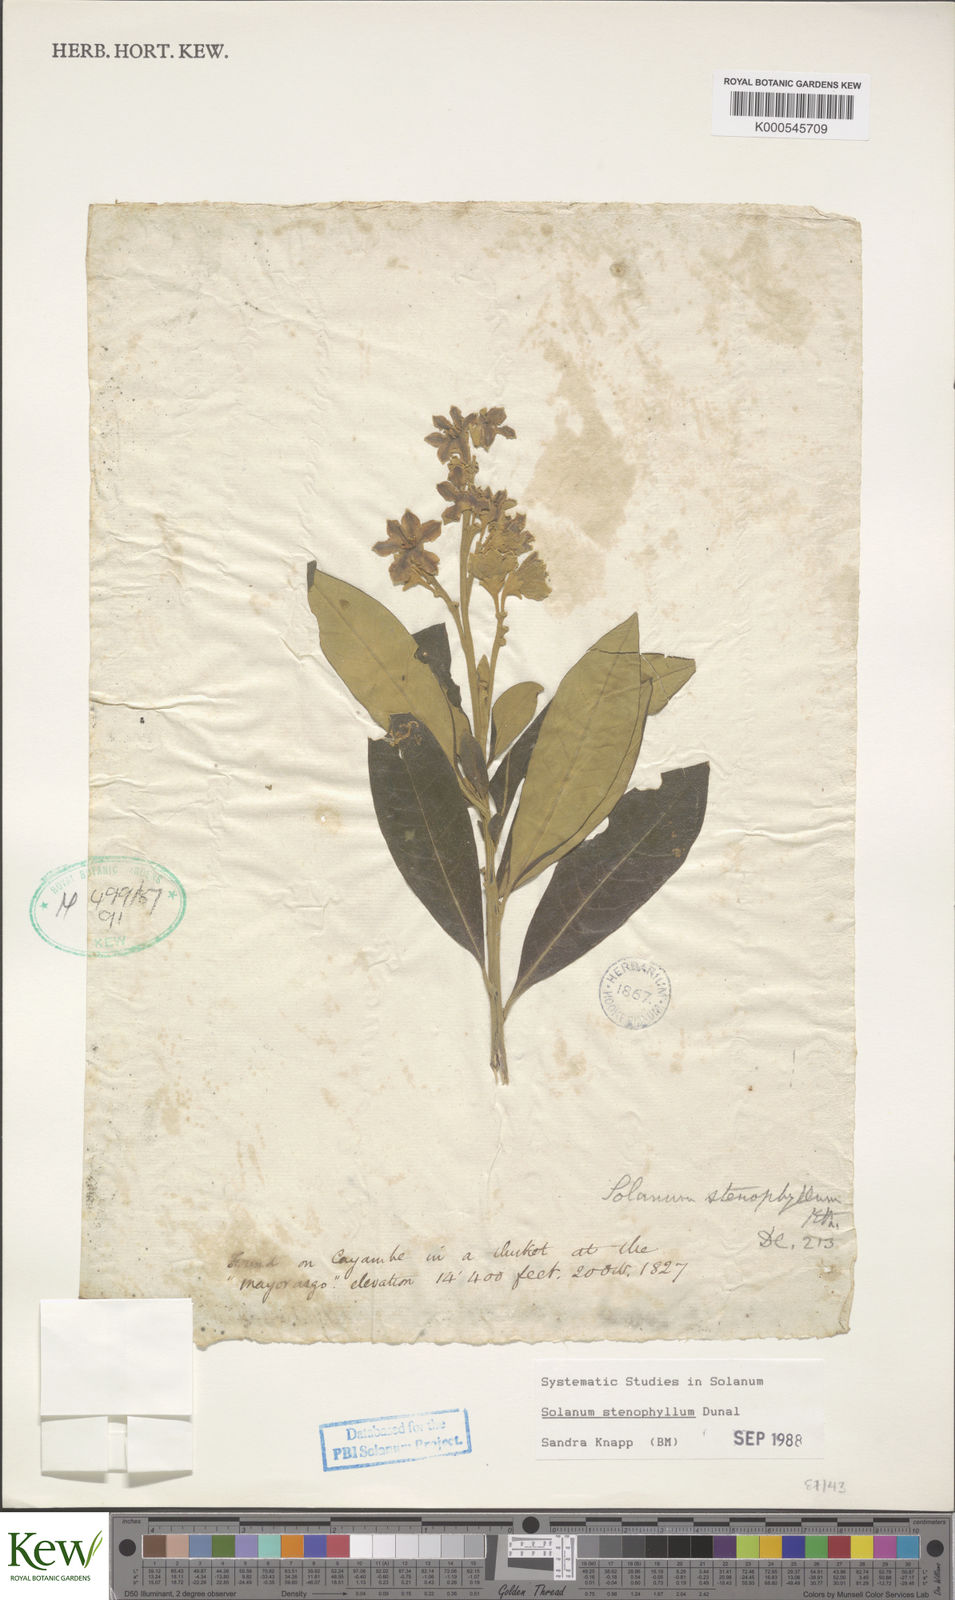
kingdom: Plantae
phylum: Tracheophyta
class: Magnoliopsida
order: Solanales
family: Solanaceae
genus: Solanum
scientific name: Solanum stenophyllum
